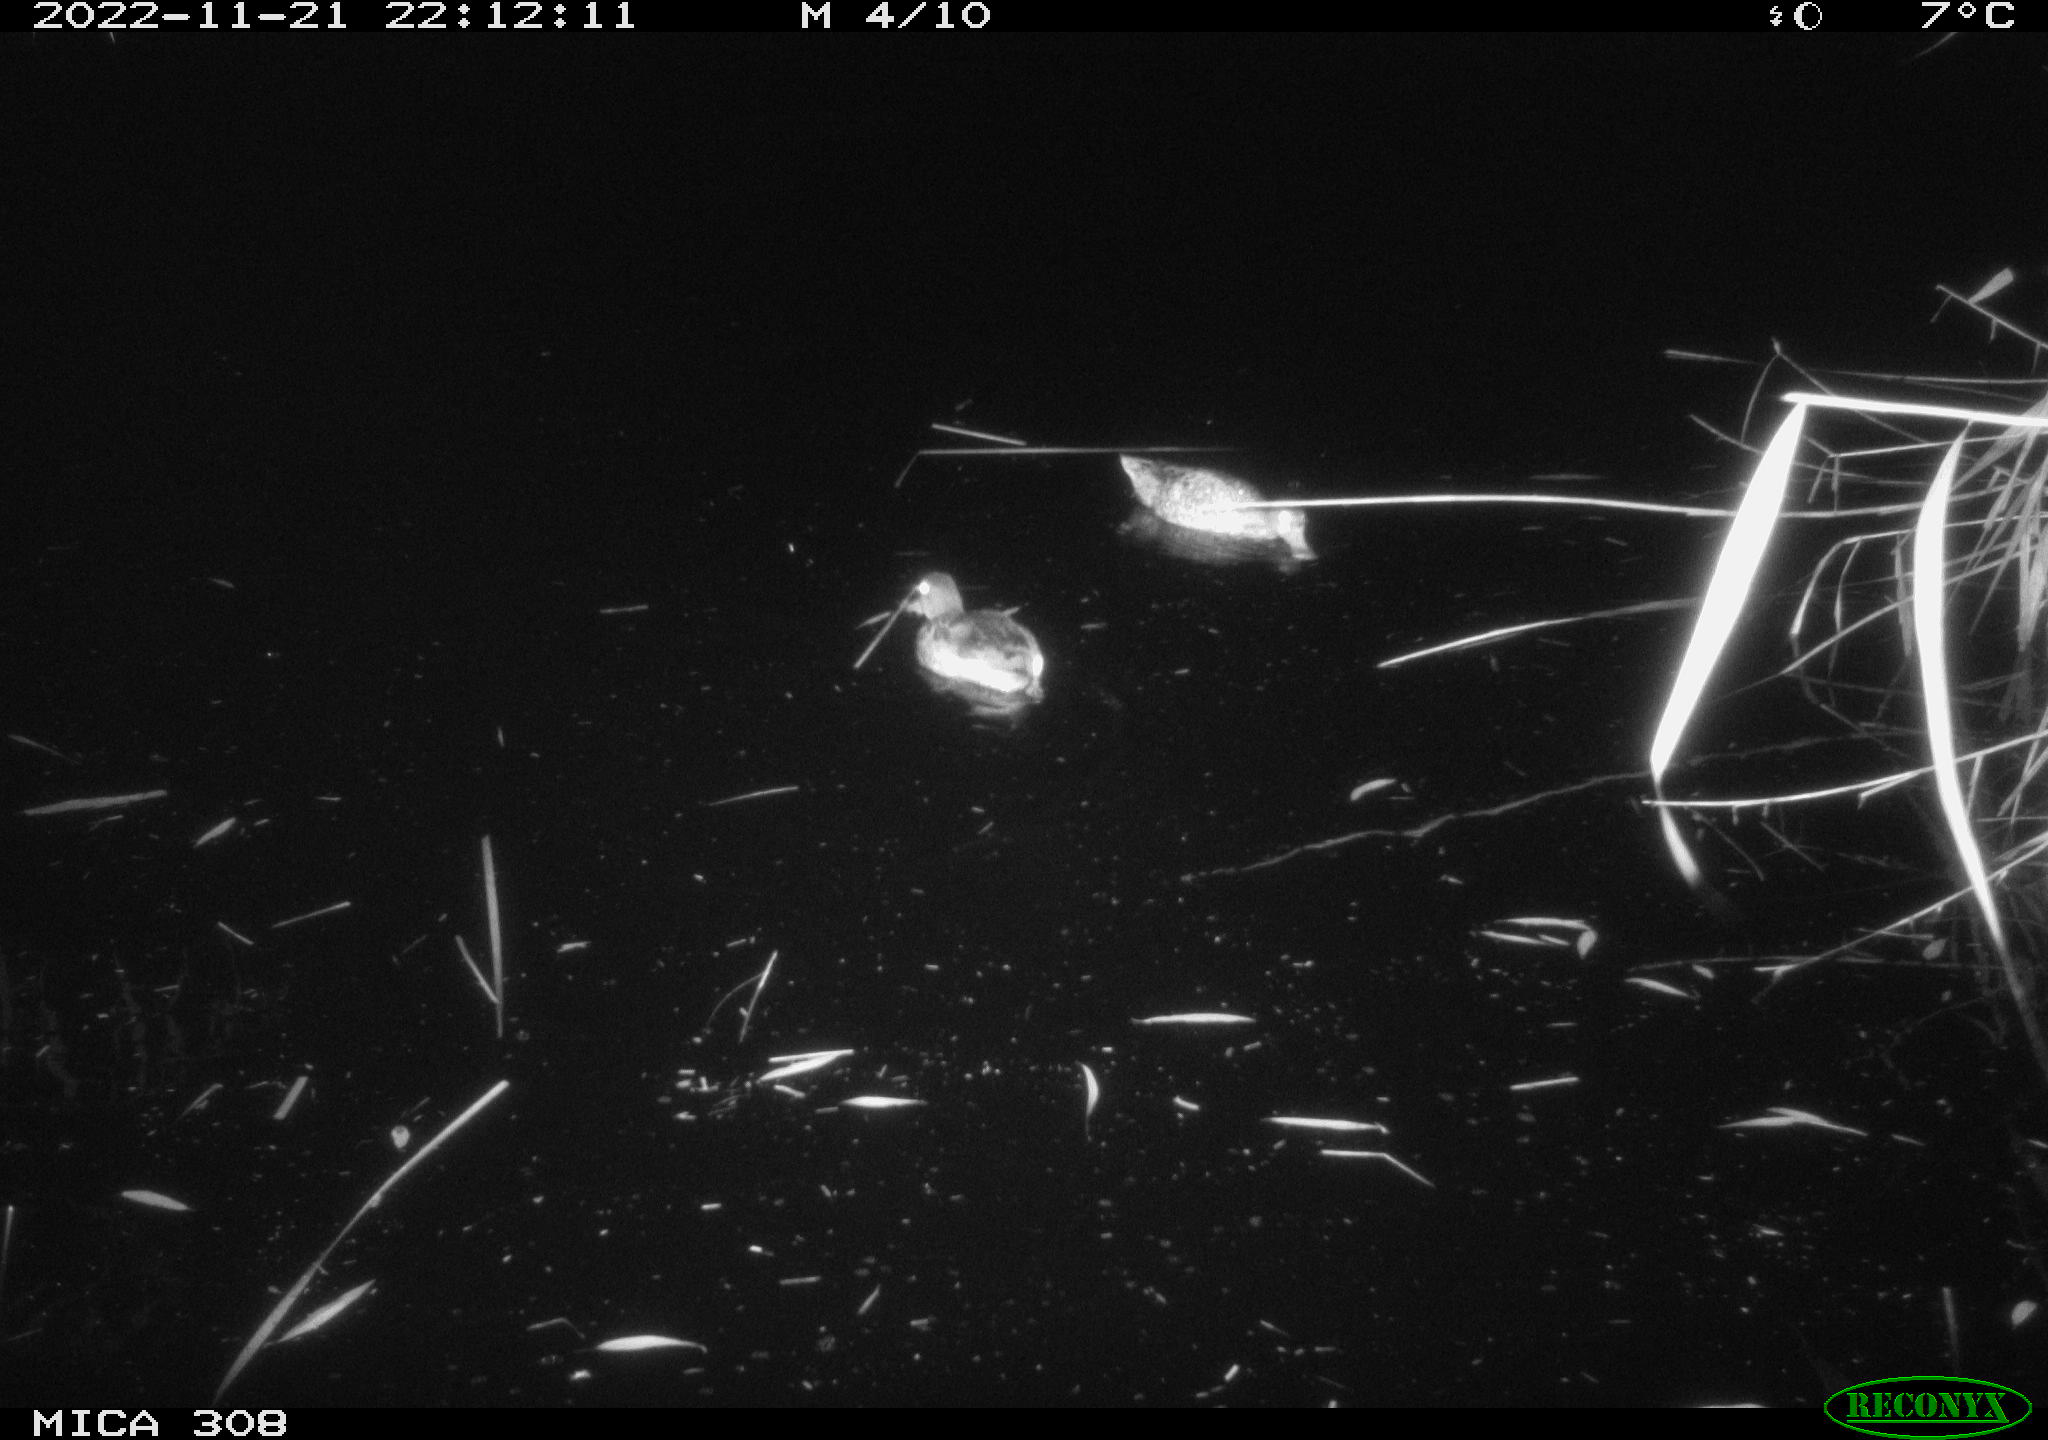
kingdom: Animalia
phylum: Chordata
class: Aves
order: Anseriformes
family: Anatidae
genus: Anas
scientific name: Anas
